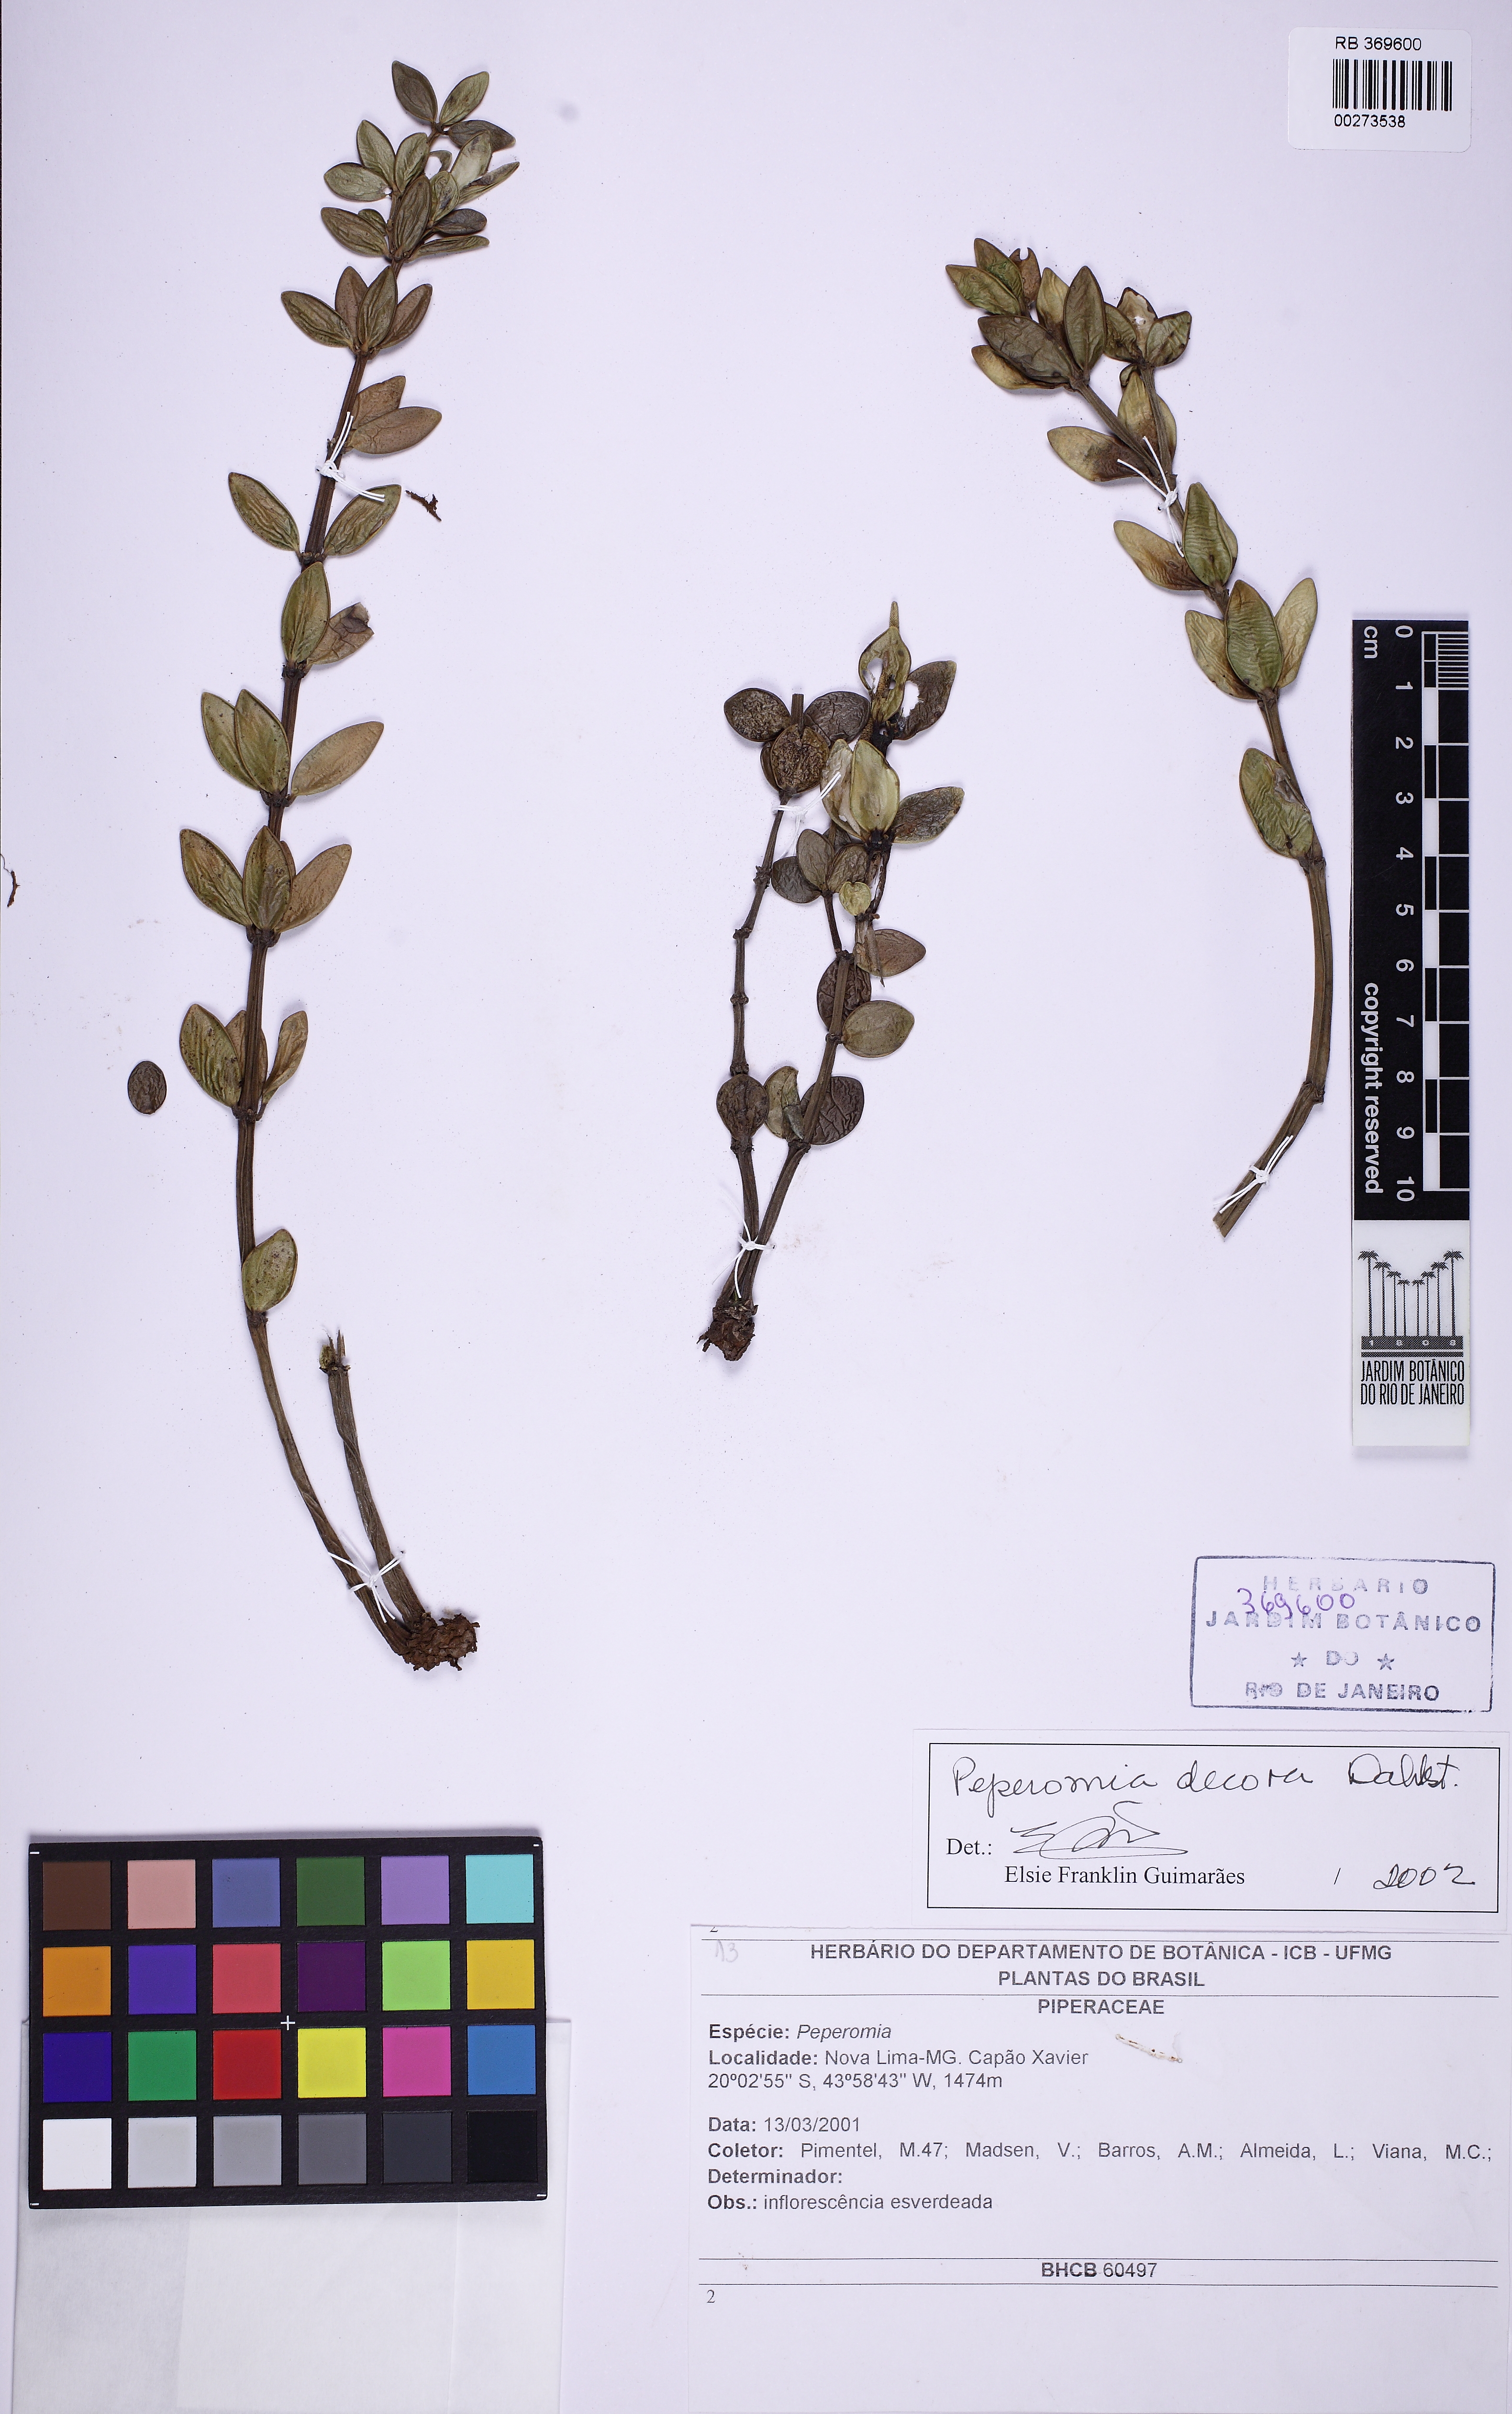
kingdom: Plantae
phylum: Tracheophyta
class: Magnoliopsida
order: Piperales
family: Piperaceae
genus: Peperomia
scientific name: Peperomia decora
